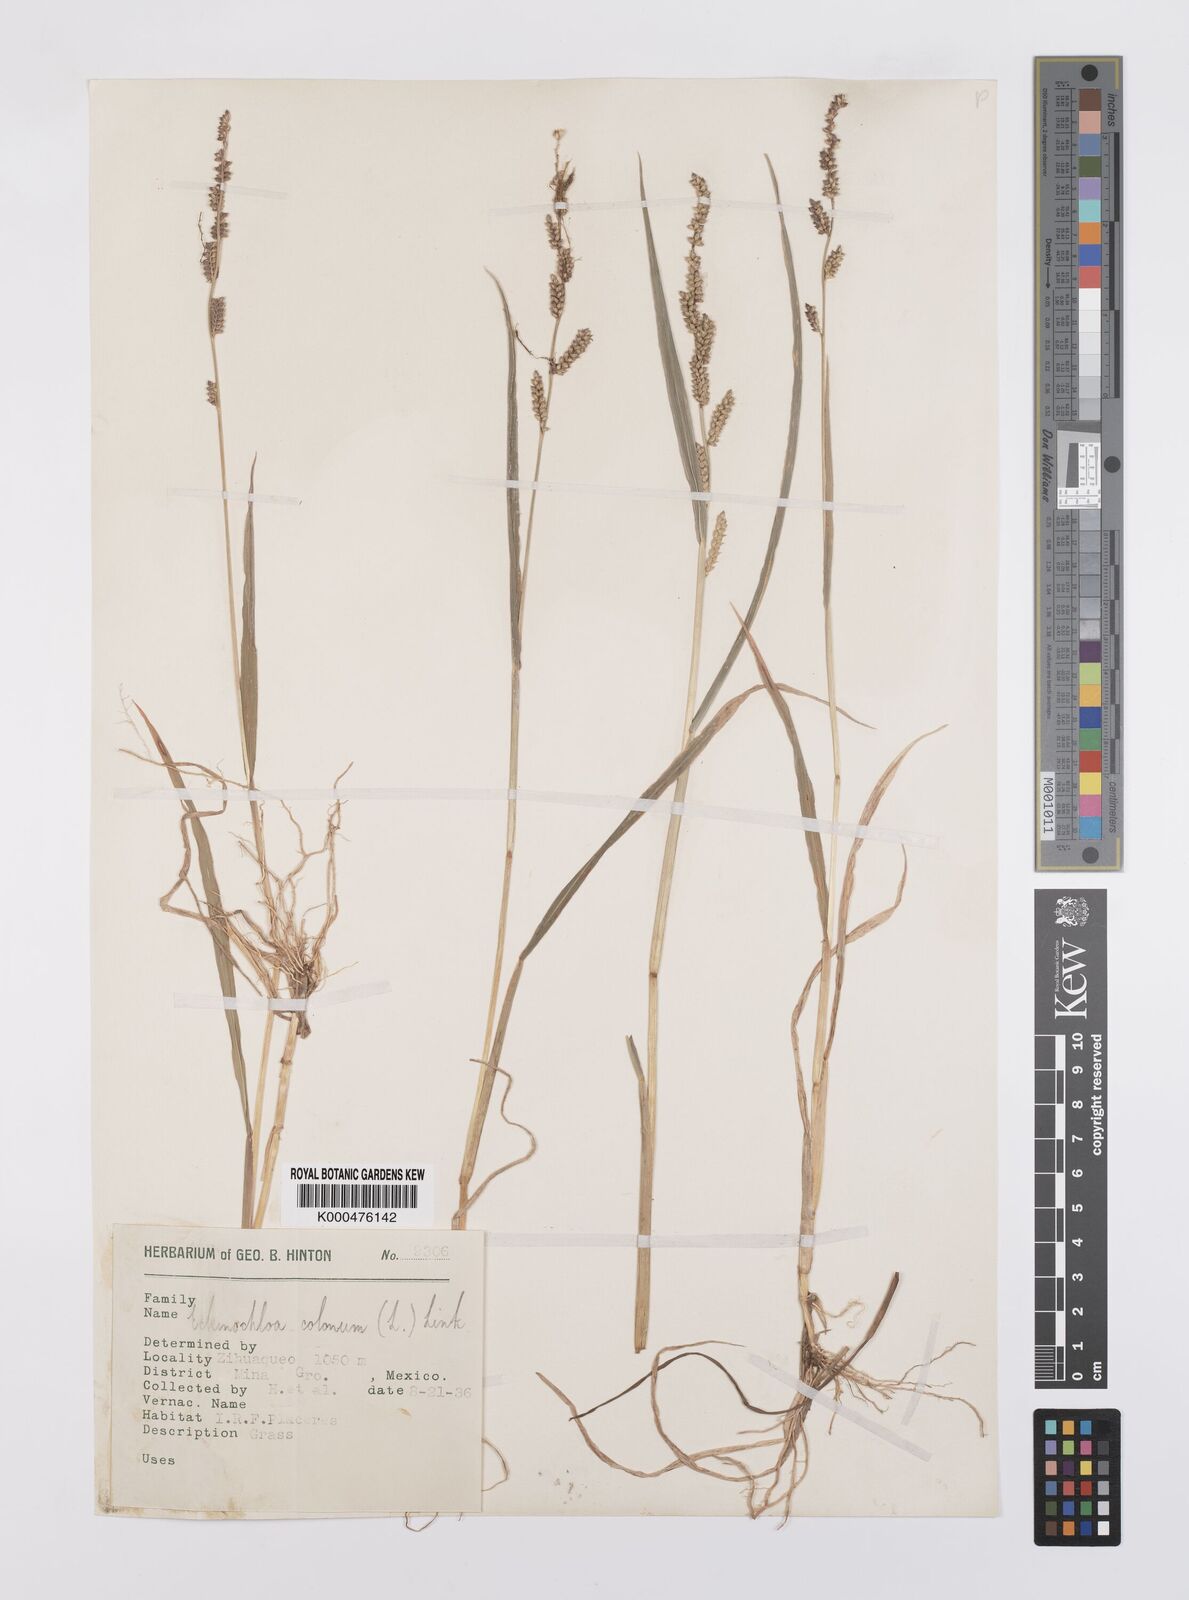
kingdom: Plantae
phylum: Tracheophyta
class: Liliopsida
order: Poales
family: Poaceae
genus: Echinochloa
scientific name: Echinochloa colonum
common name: Jungle rice
